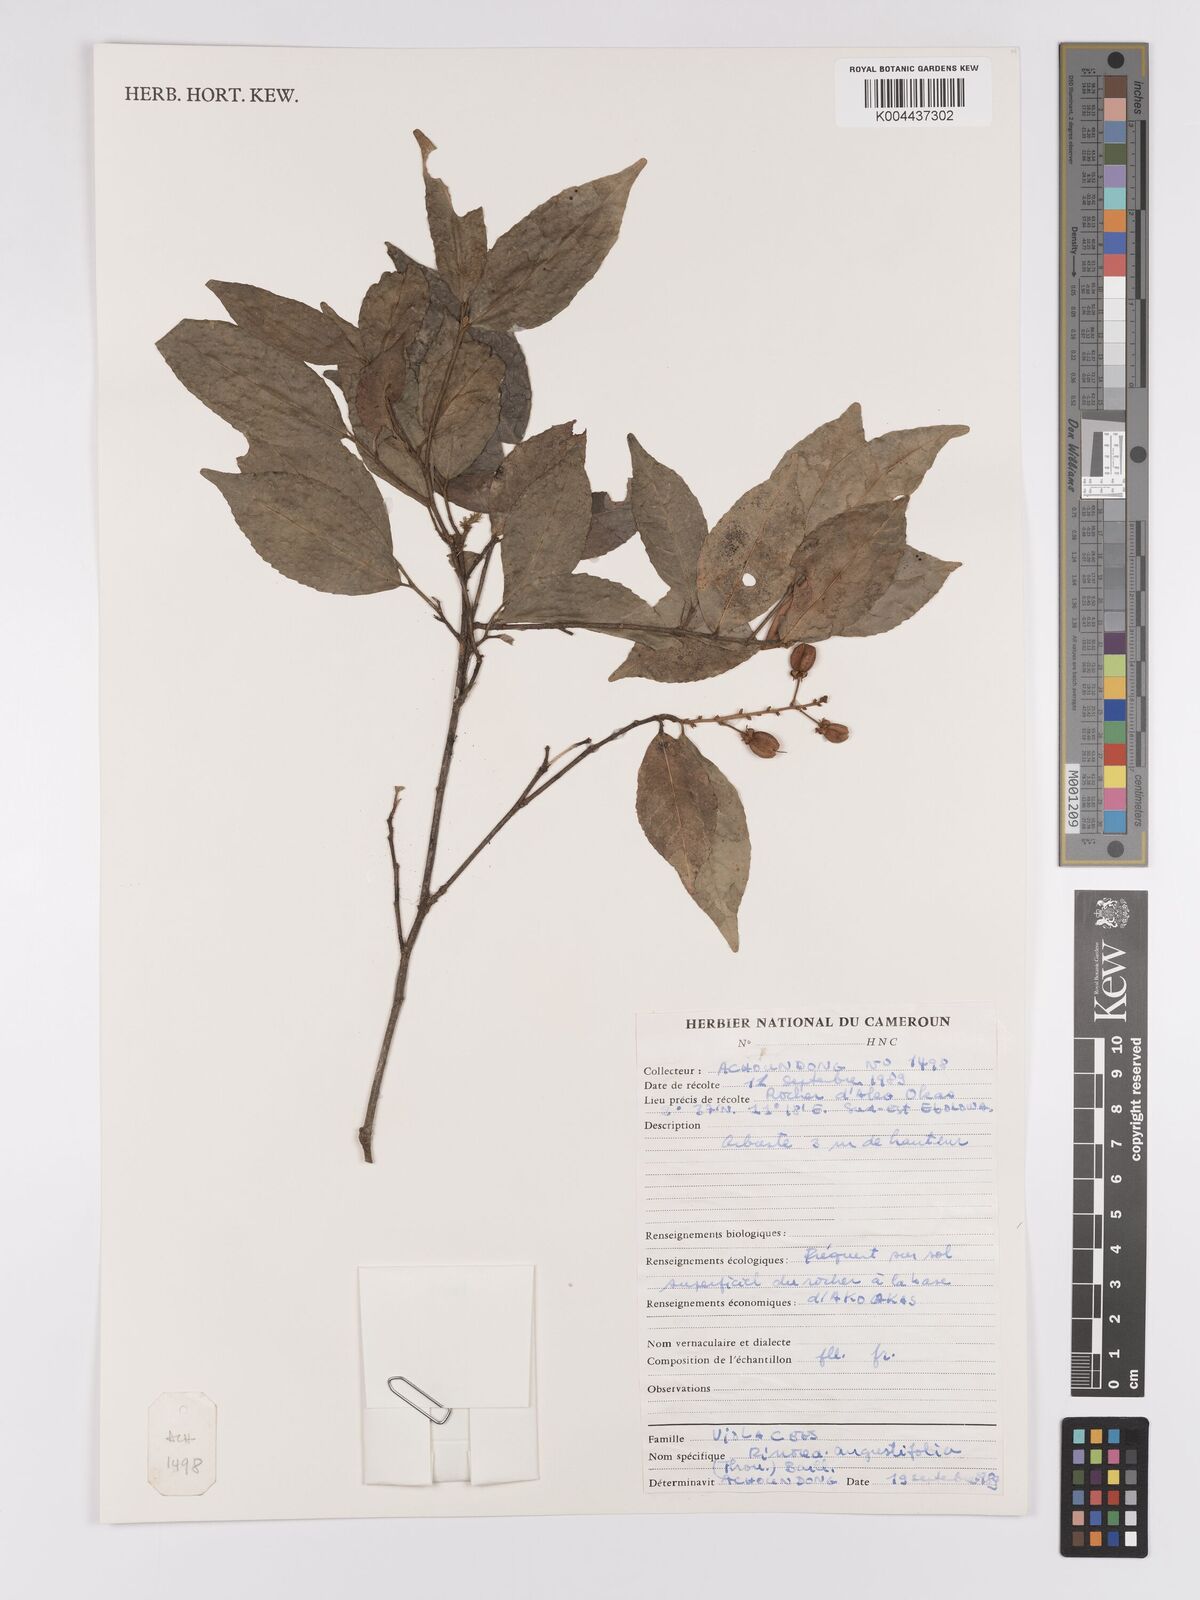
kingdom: Plantae
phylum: Tracheophyta
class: Magnoliopsida
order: Malpighiales
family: Violaceae
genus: Rinorea
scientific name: Rinorea angustifolia
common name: White violet-bush
